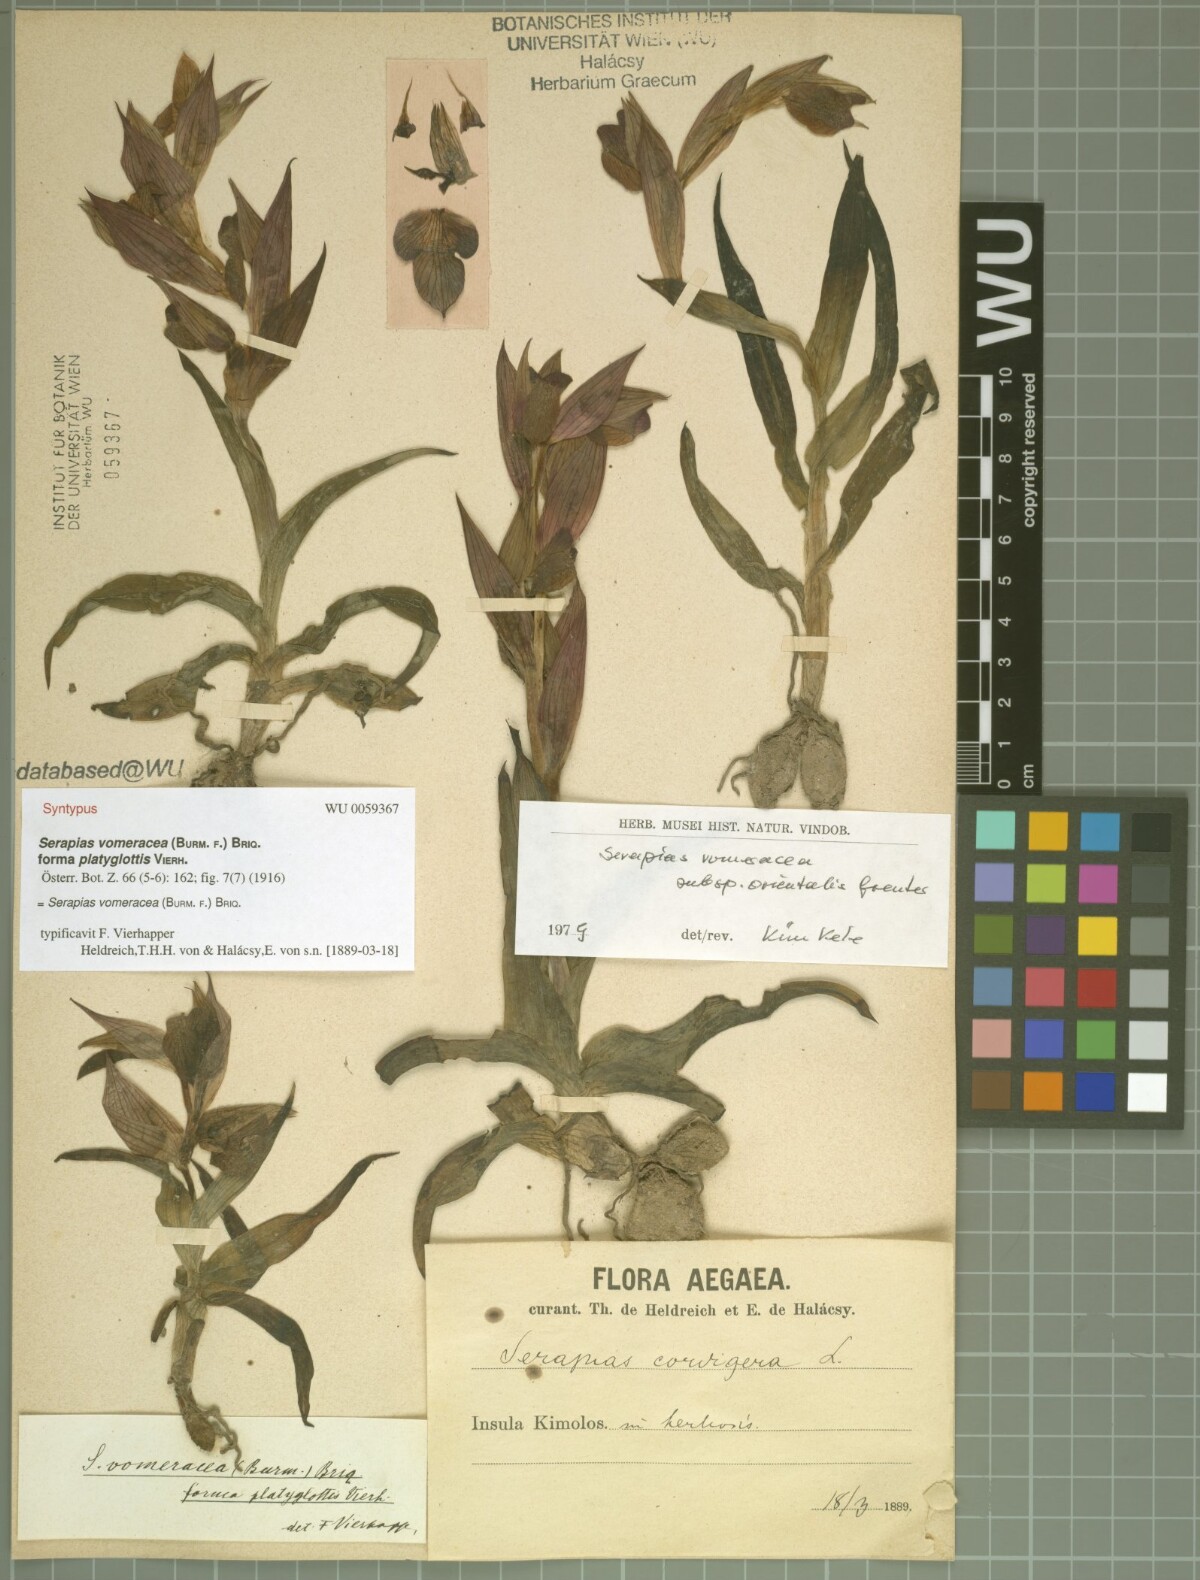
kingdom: Plantae
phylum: Tracheophyta
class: Liliopsida
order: Asparagales
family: Orchidaceae
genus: Serapias
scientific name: Serapias orientalis
